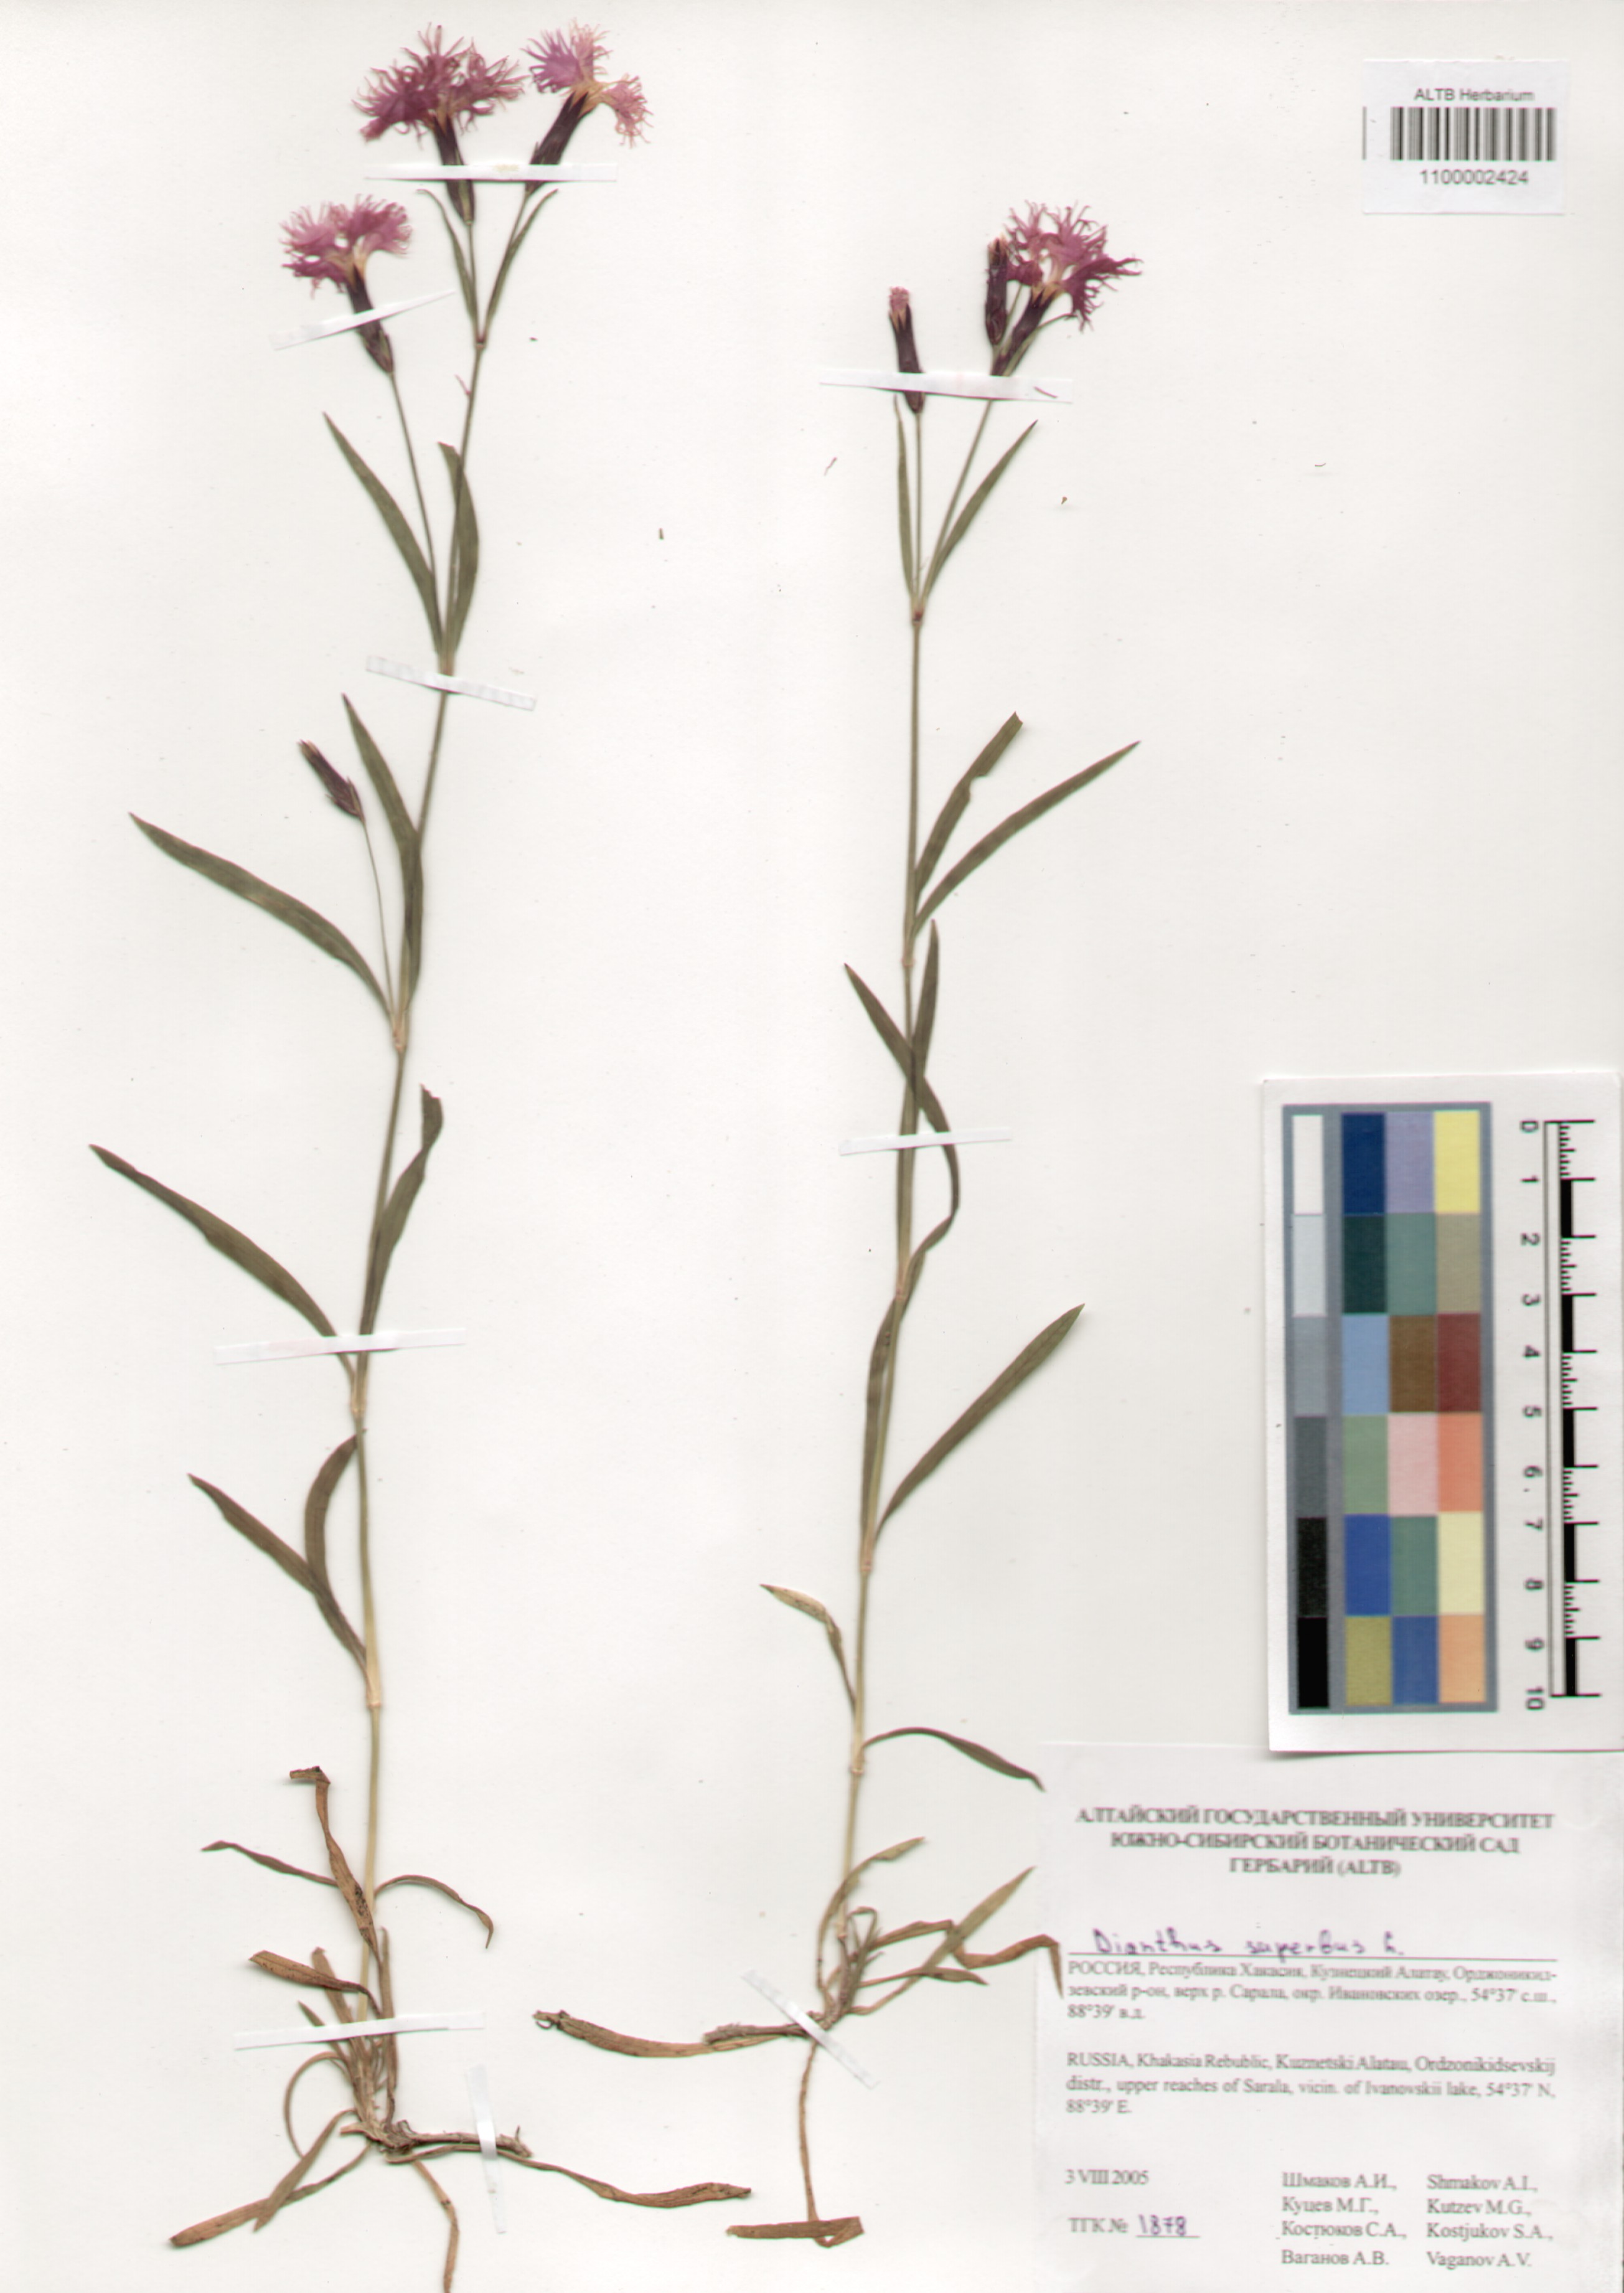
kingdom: Plantae
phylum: Tracheophyta
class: Magnoliopsida
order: Caryophyllales
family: Caryophyllaceae
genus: Dianthus
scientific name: Dianthus superbus
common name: Fringed pink
